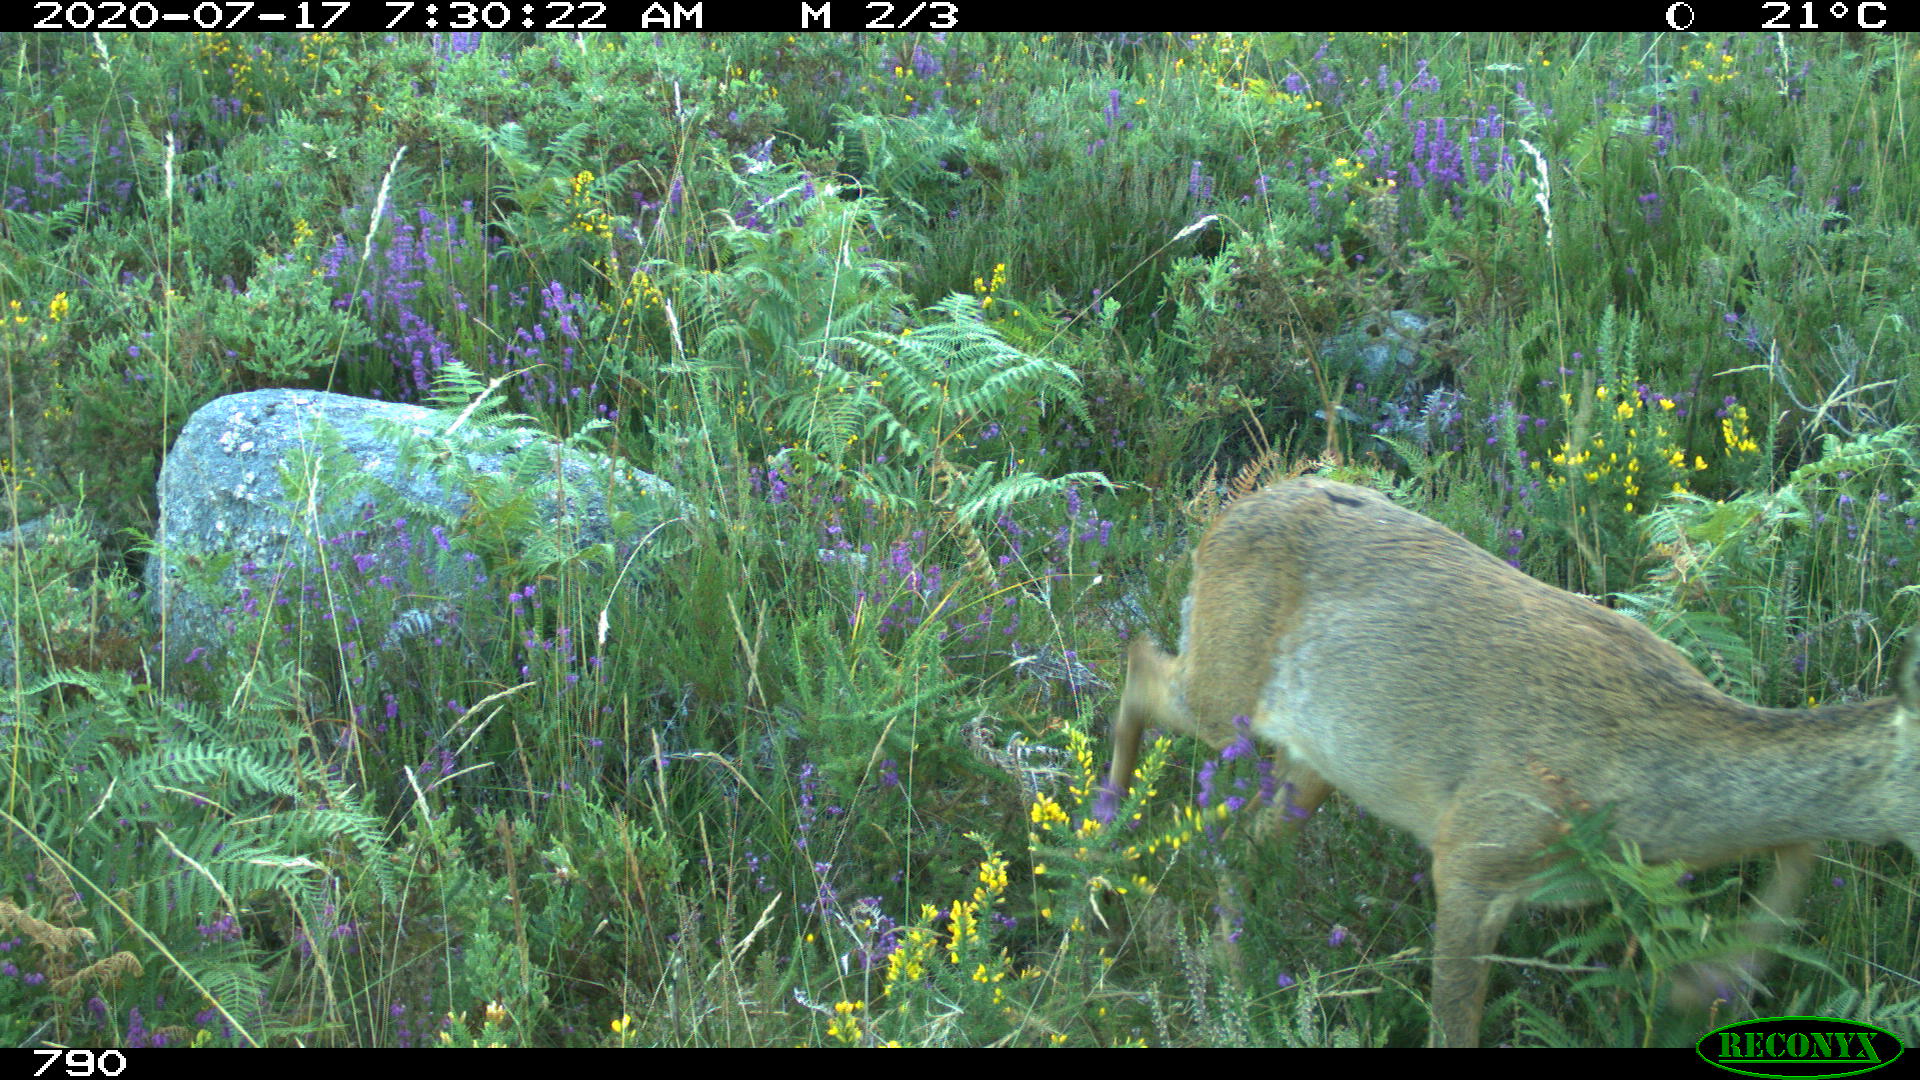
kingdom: Animalia
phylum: Chordata
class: Mammalia
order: Artiodactyla
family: Cervidae
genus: Capreolus
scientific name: Capreolus capreolus
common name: Western roe deer
